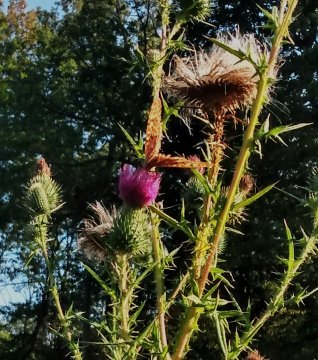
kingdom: Animalia
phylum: Arthropoda
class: Insecta
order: Lepidoptera
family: Nymphalidae
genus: Speyeria
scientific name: Speyeria cybele
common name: Great Spangled Fritillary
